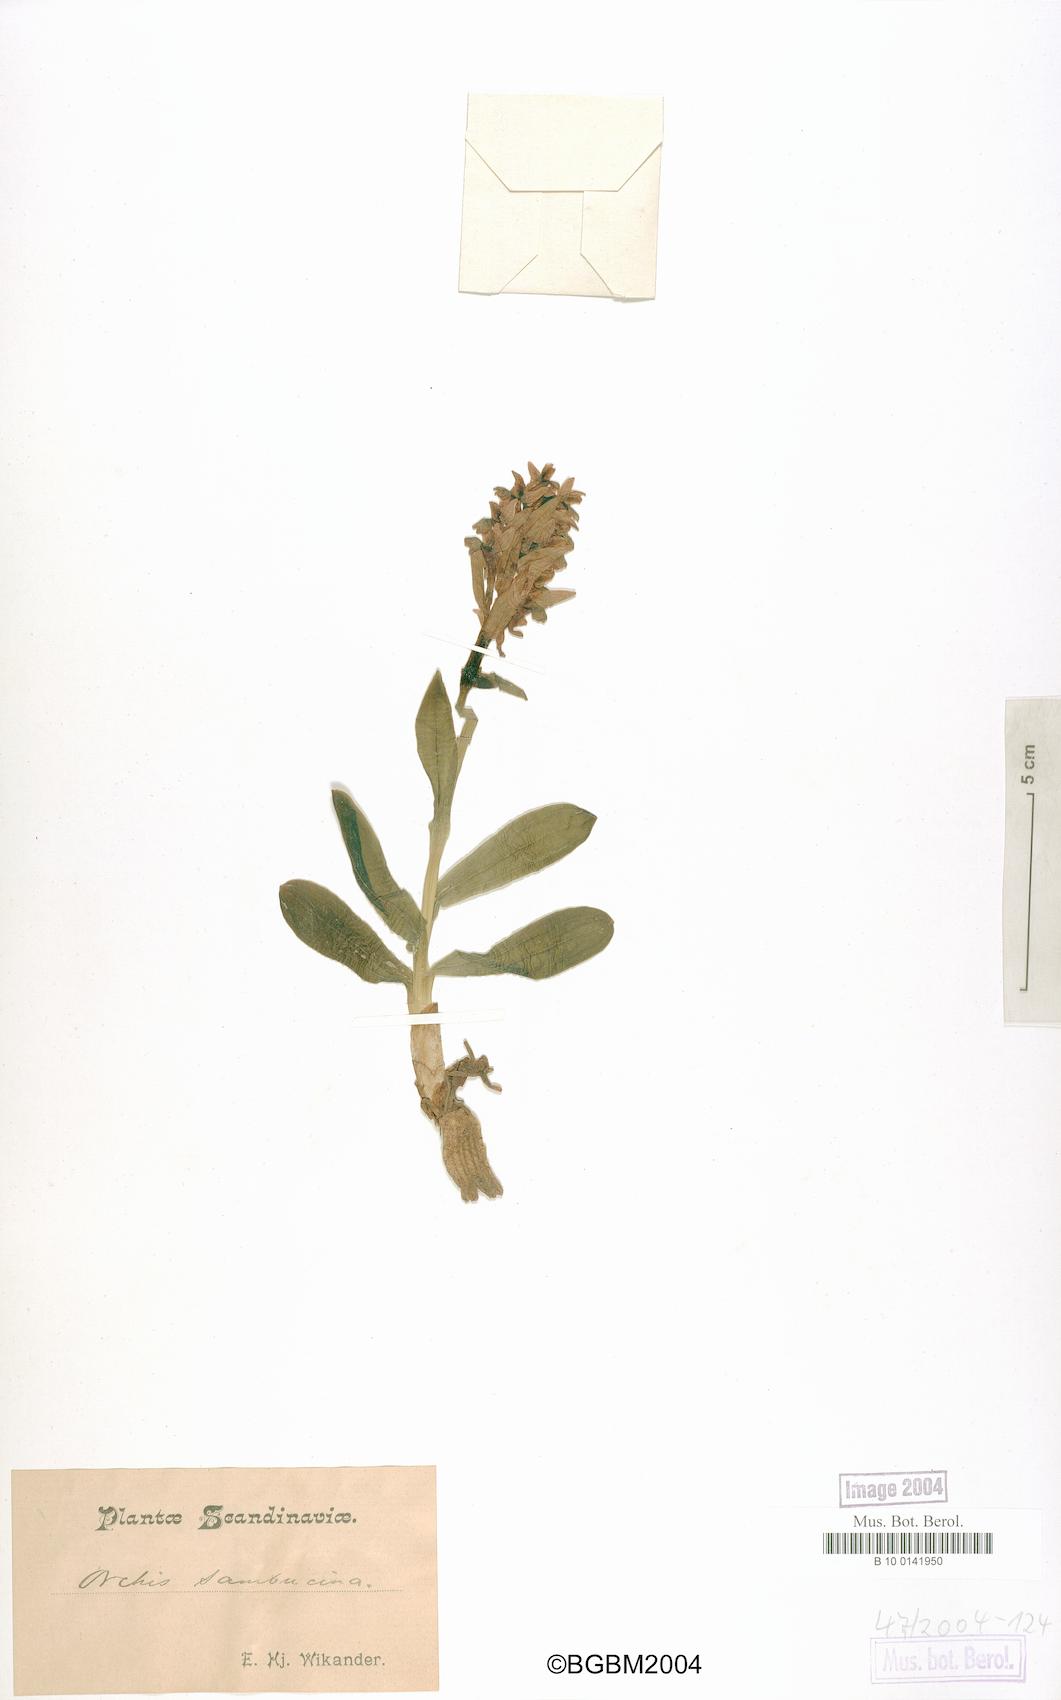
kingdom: Plantae
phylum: Tracheophyta
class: Liliopsida
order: Asparagales
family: Orchidaceae
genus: Dactylorhiza
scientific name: Dactylorhiza sambucina
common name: Elder-flowered orchid
